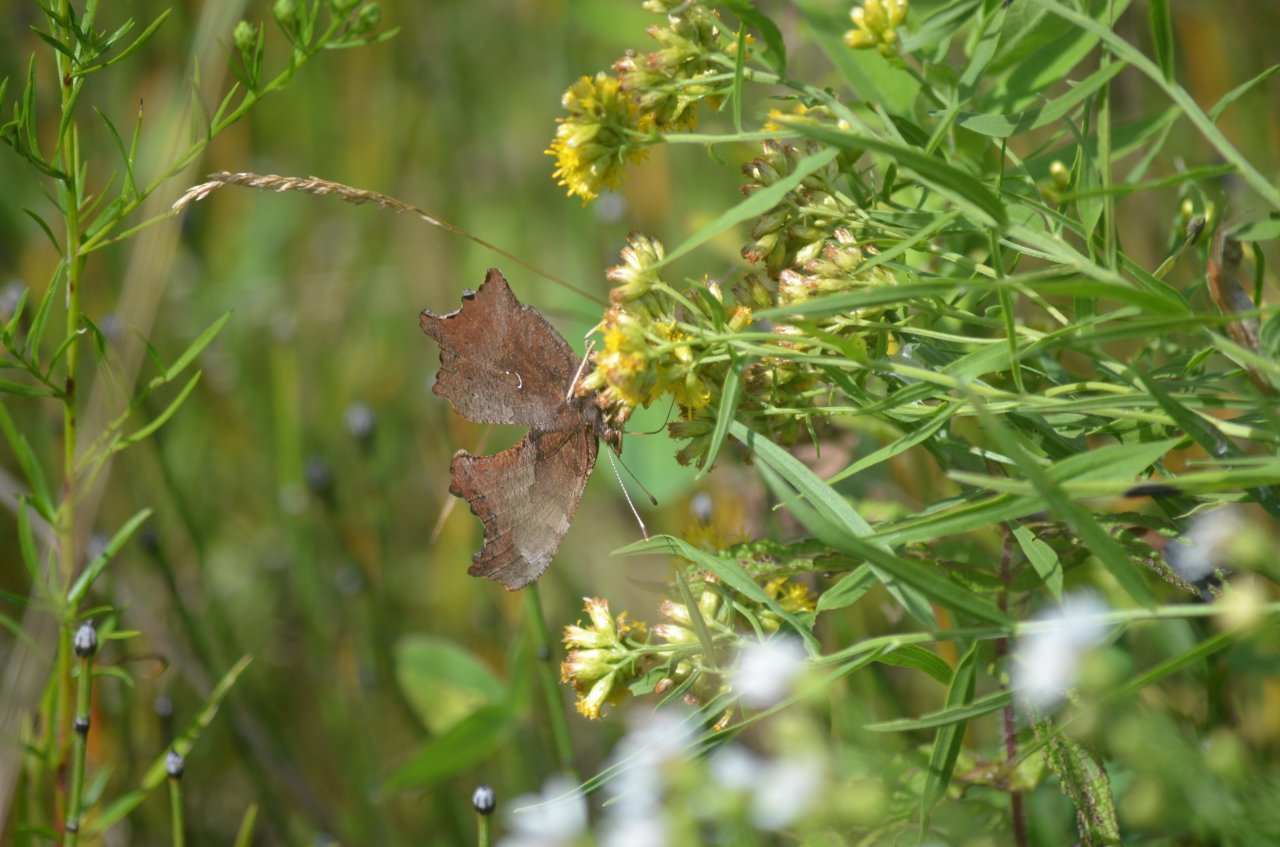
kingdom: Animalia
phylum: Arthropoda
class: Insecta
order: Lepidoptera
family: Nymphalidae
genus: Polygonia
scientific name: Polygonia comma
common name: Eastern Comma
